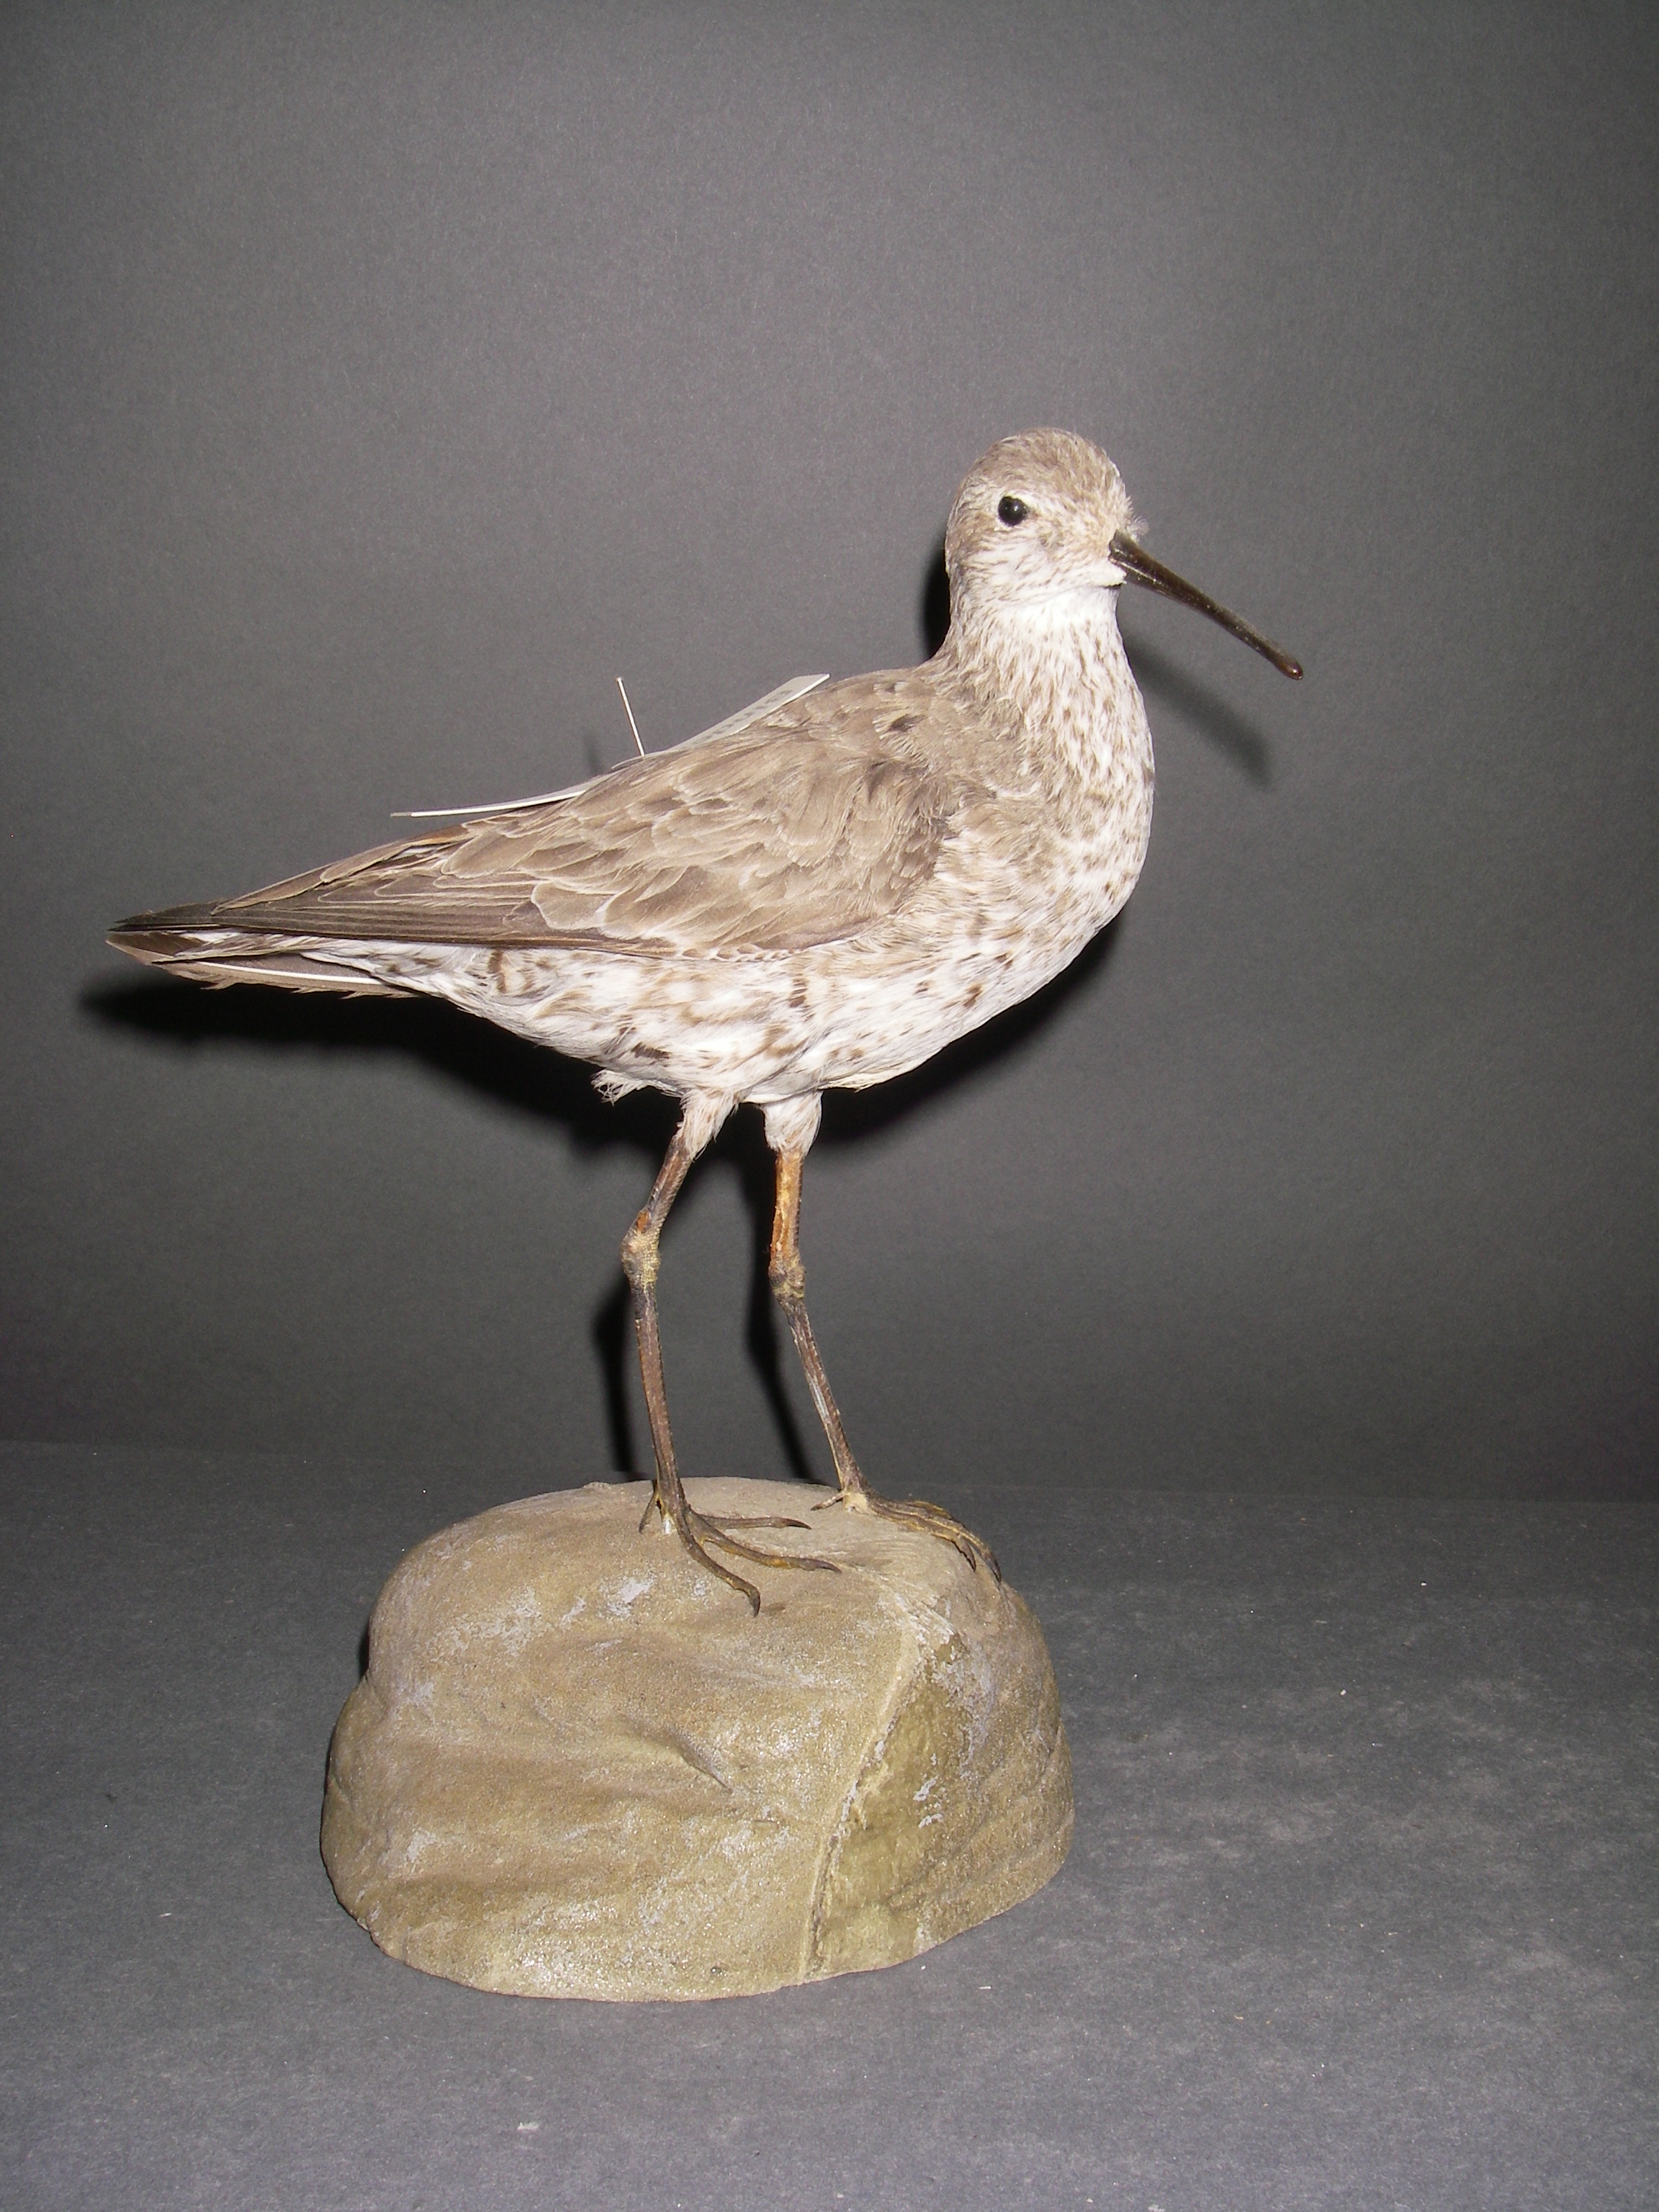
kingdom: Animalia
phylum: Chordata
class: Aves
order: Charadriiformes
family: Scolopacidae
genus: Calidris
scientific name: Calidris himantopus
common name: Stilt sandpiper
